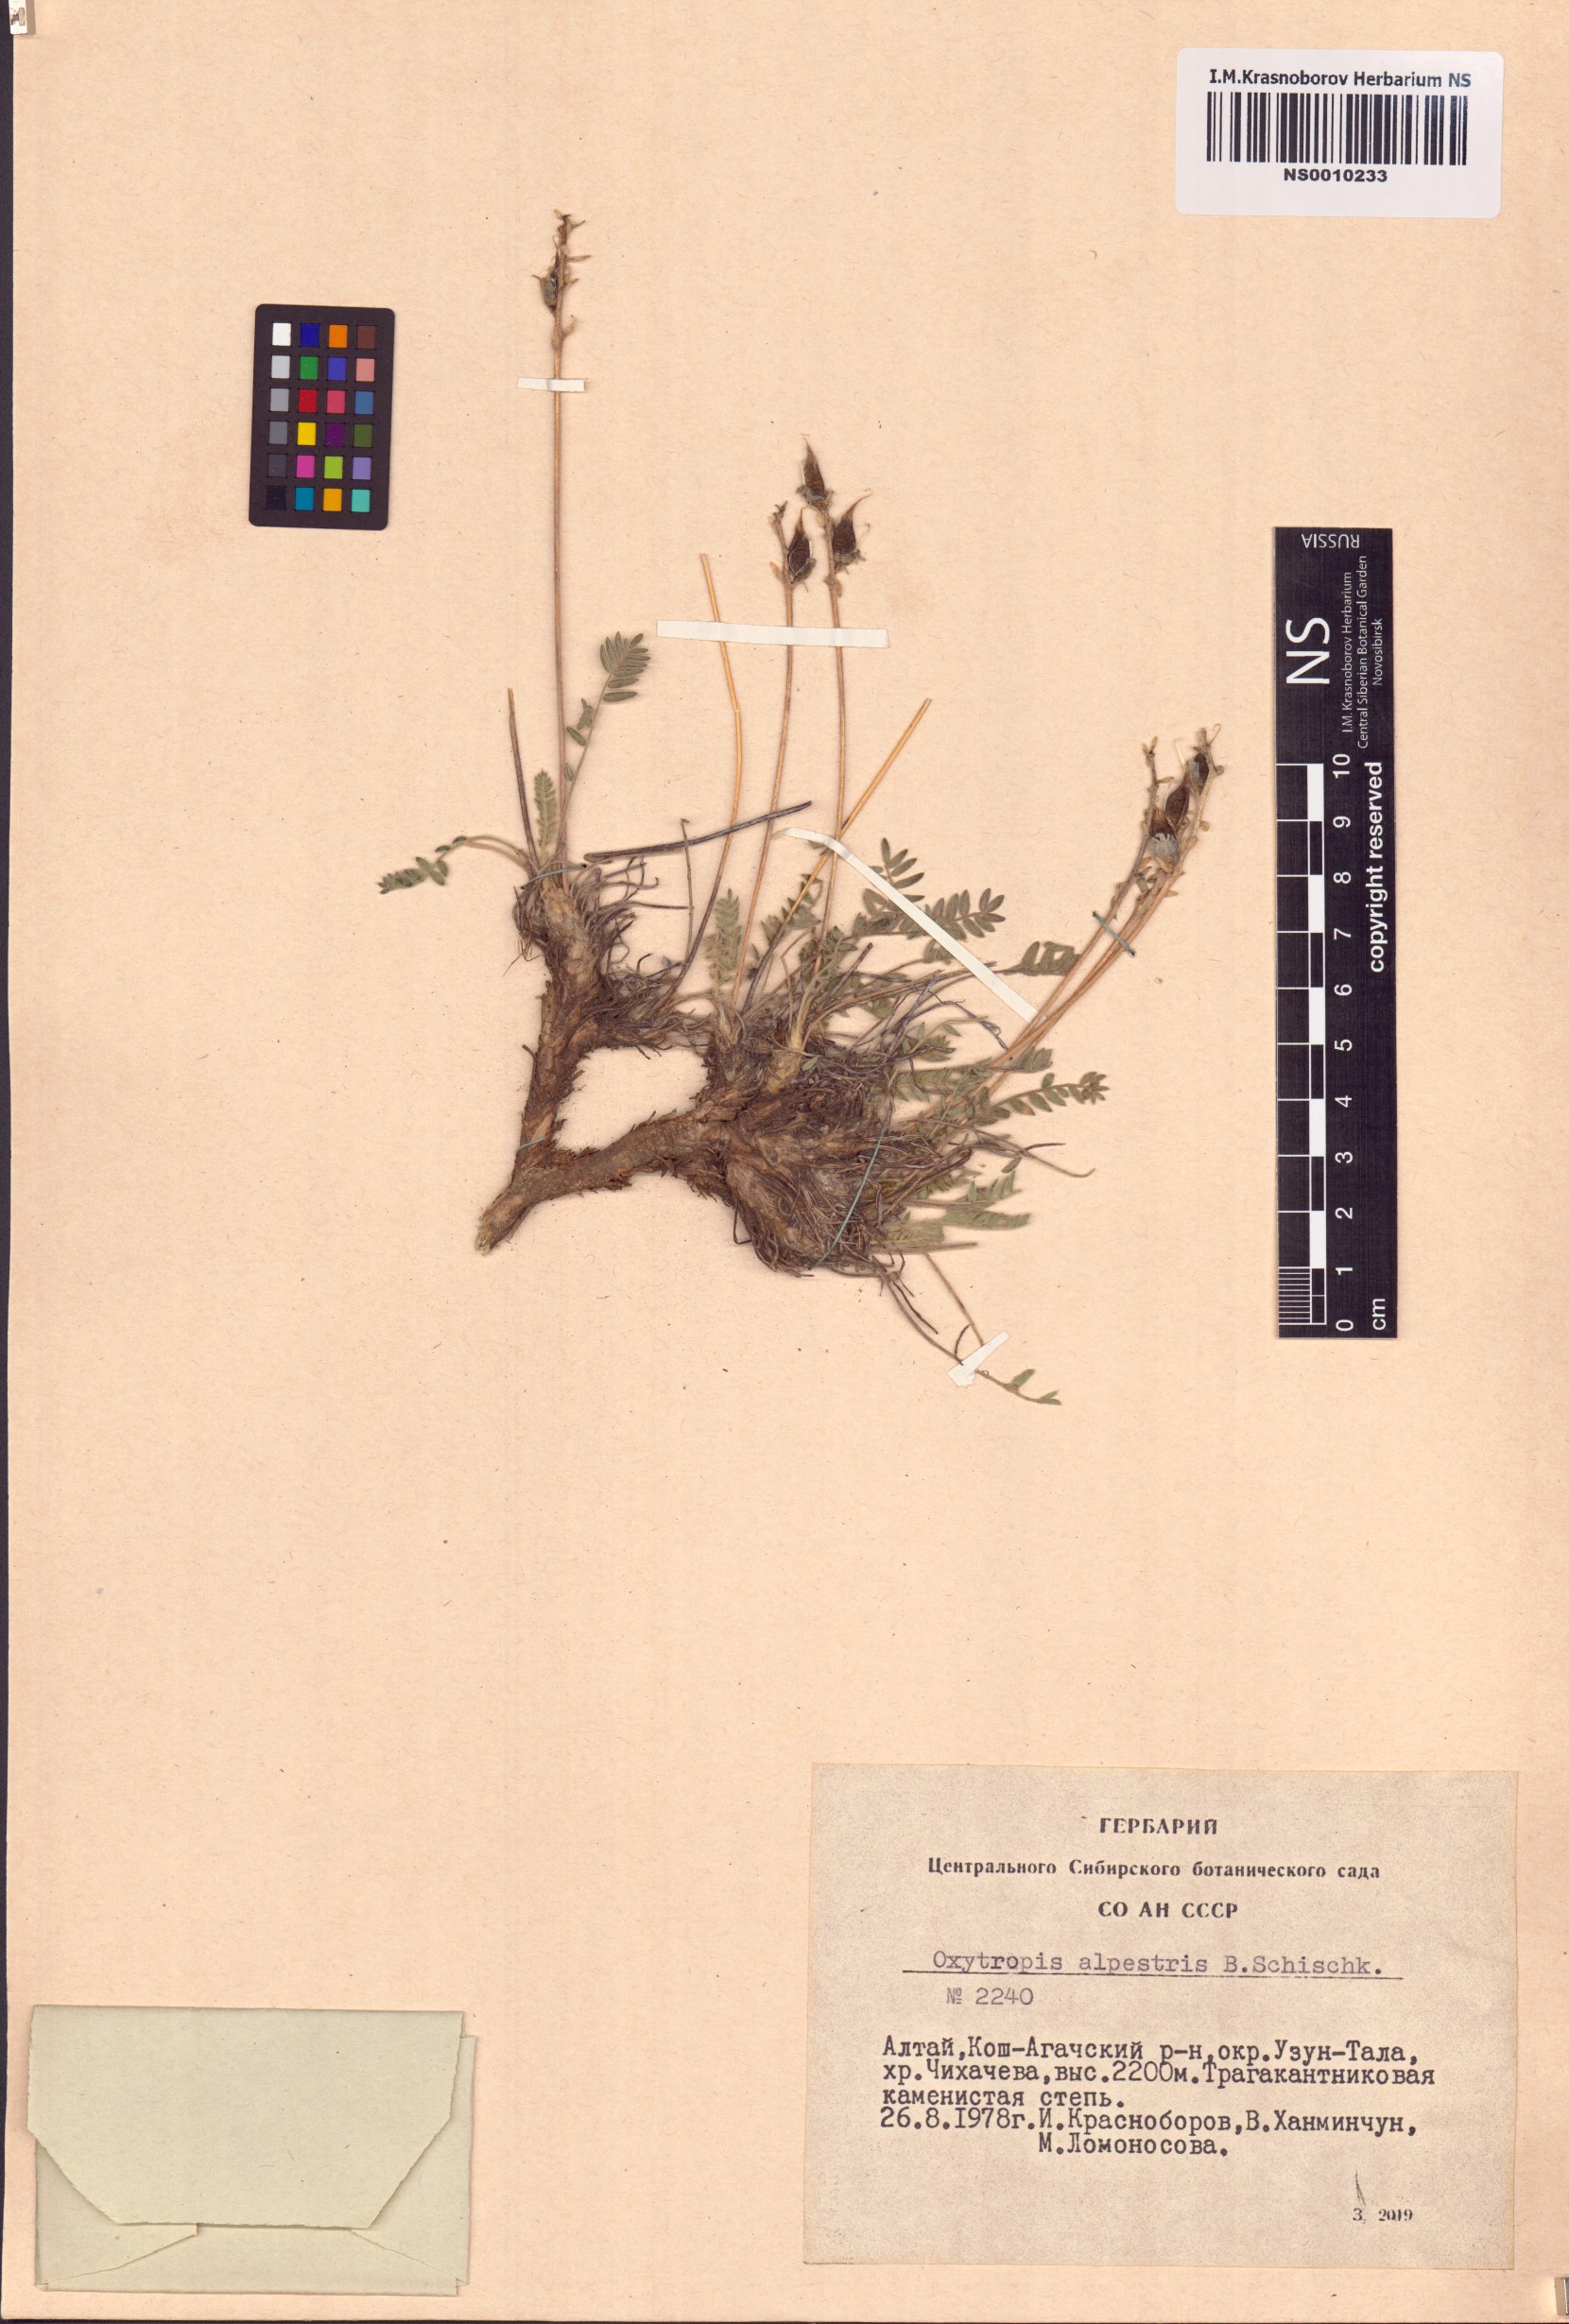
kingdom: Plantae
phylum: Tracheophyta
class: Magnoliopsida
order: Fabales
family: Fabaceae
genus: Oxytropis
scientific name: Oxytropis alpestris
